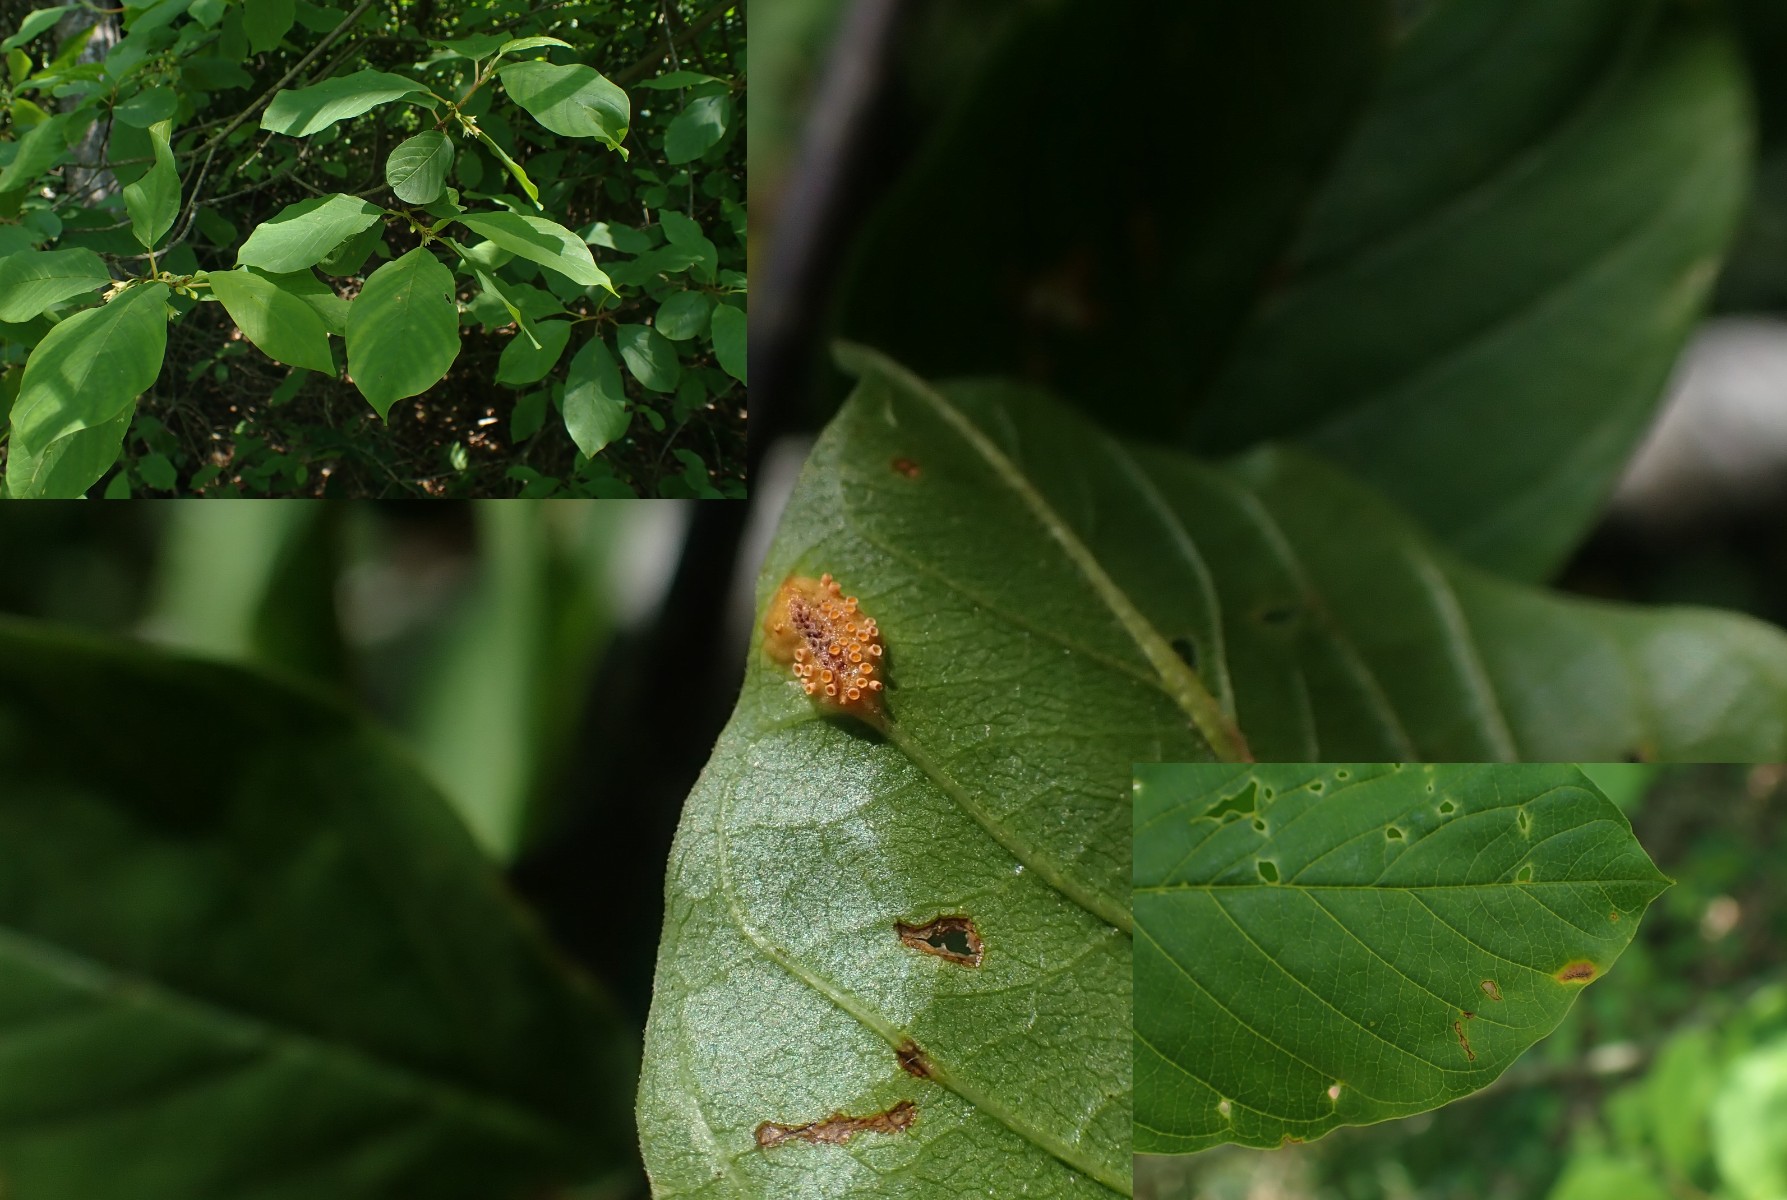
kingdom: Fungi
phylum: Basidiomycota
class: Pucciniomycetes
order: Pucciniales
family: Pucciniaceae
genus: Puccinia
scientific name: Puccinia coronata
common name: Crown rust
